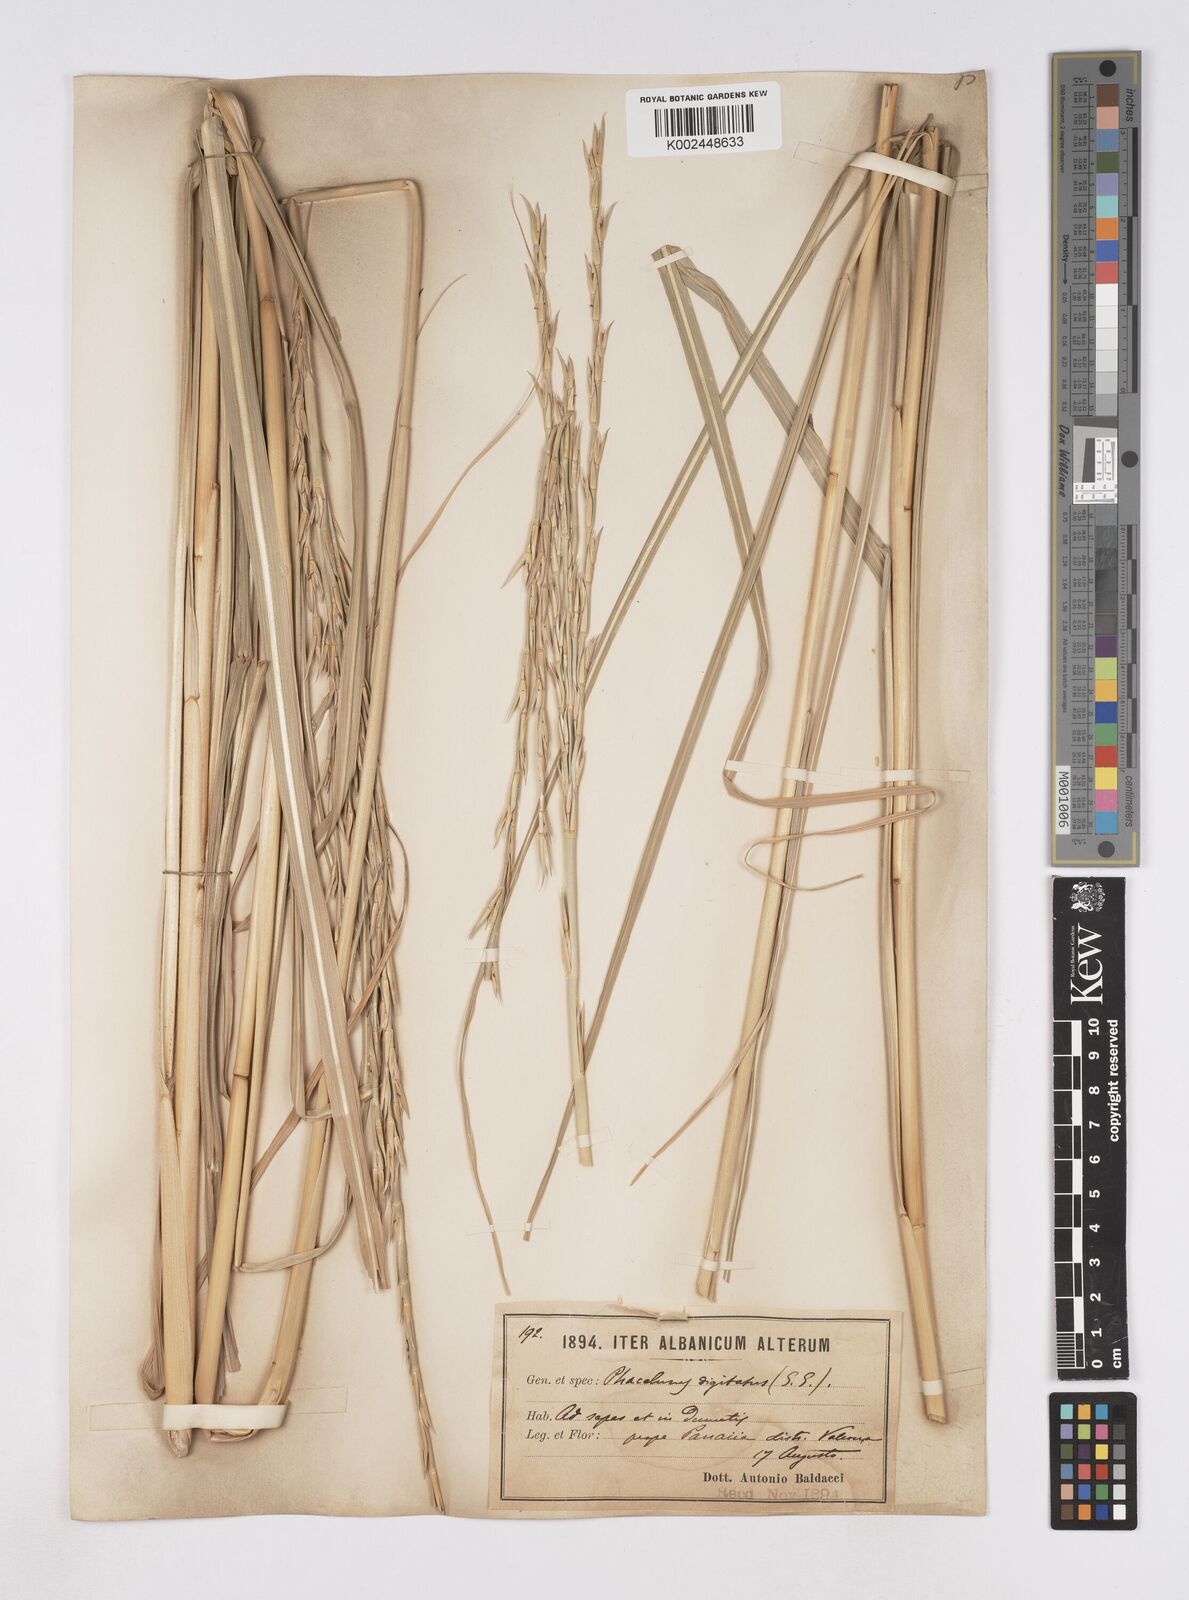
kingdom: Plantae
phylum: Tracheophyta
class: Liliopsida
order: Poales
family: Poaceae
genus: Phacelurus
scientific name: Phacelurus digitatus
